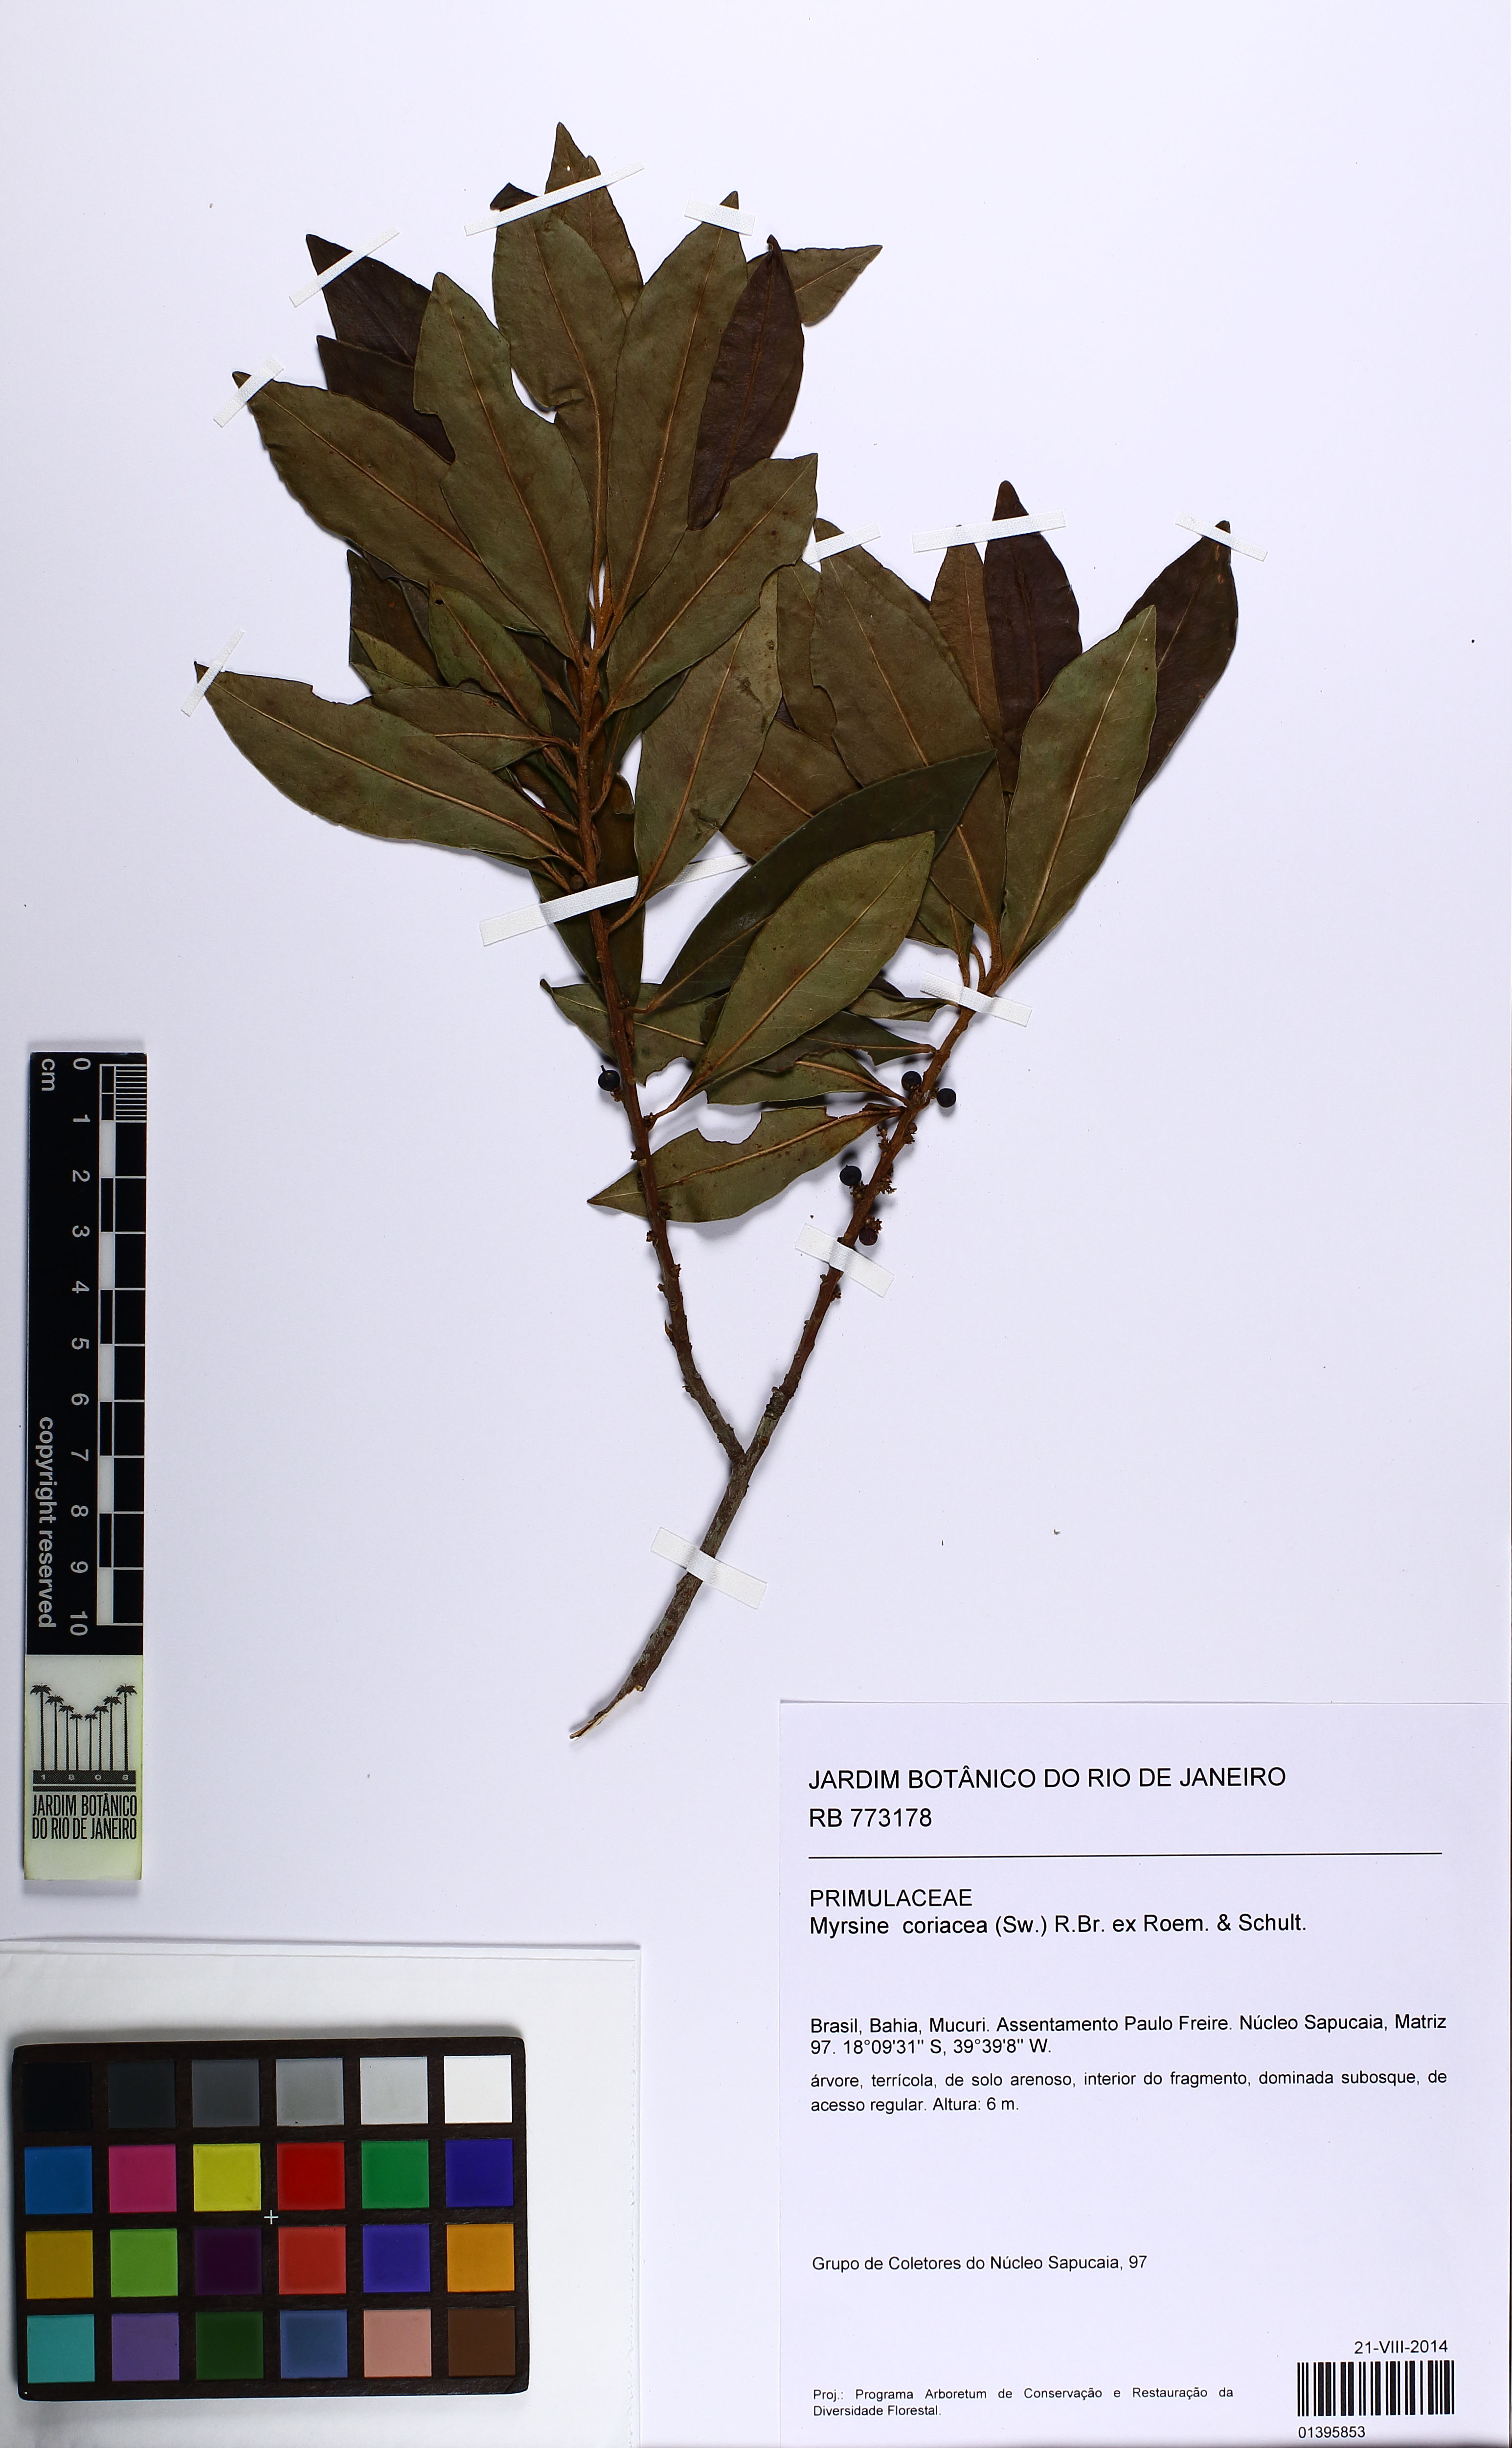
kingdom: Plantae
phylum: Tracheophyta
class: Magnoliopsida
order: Ericales
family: Primulaceae
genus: Myrsine
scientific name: Myrsine coriacea
